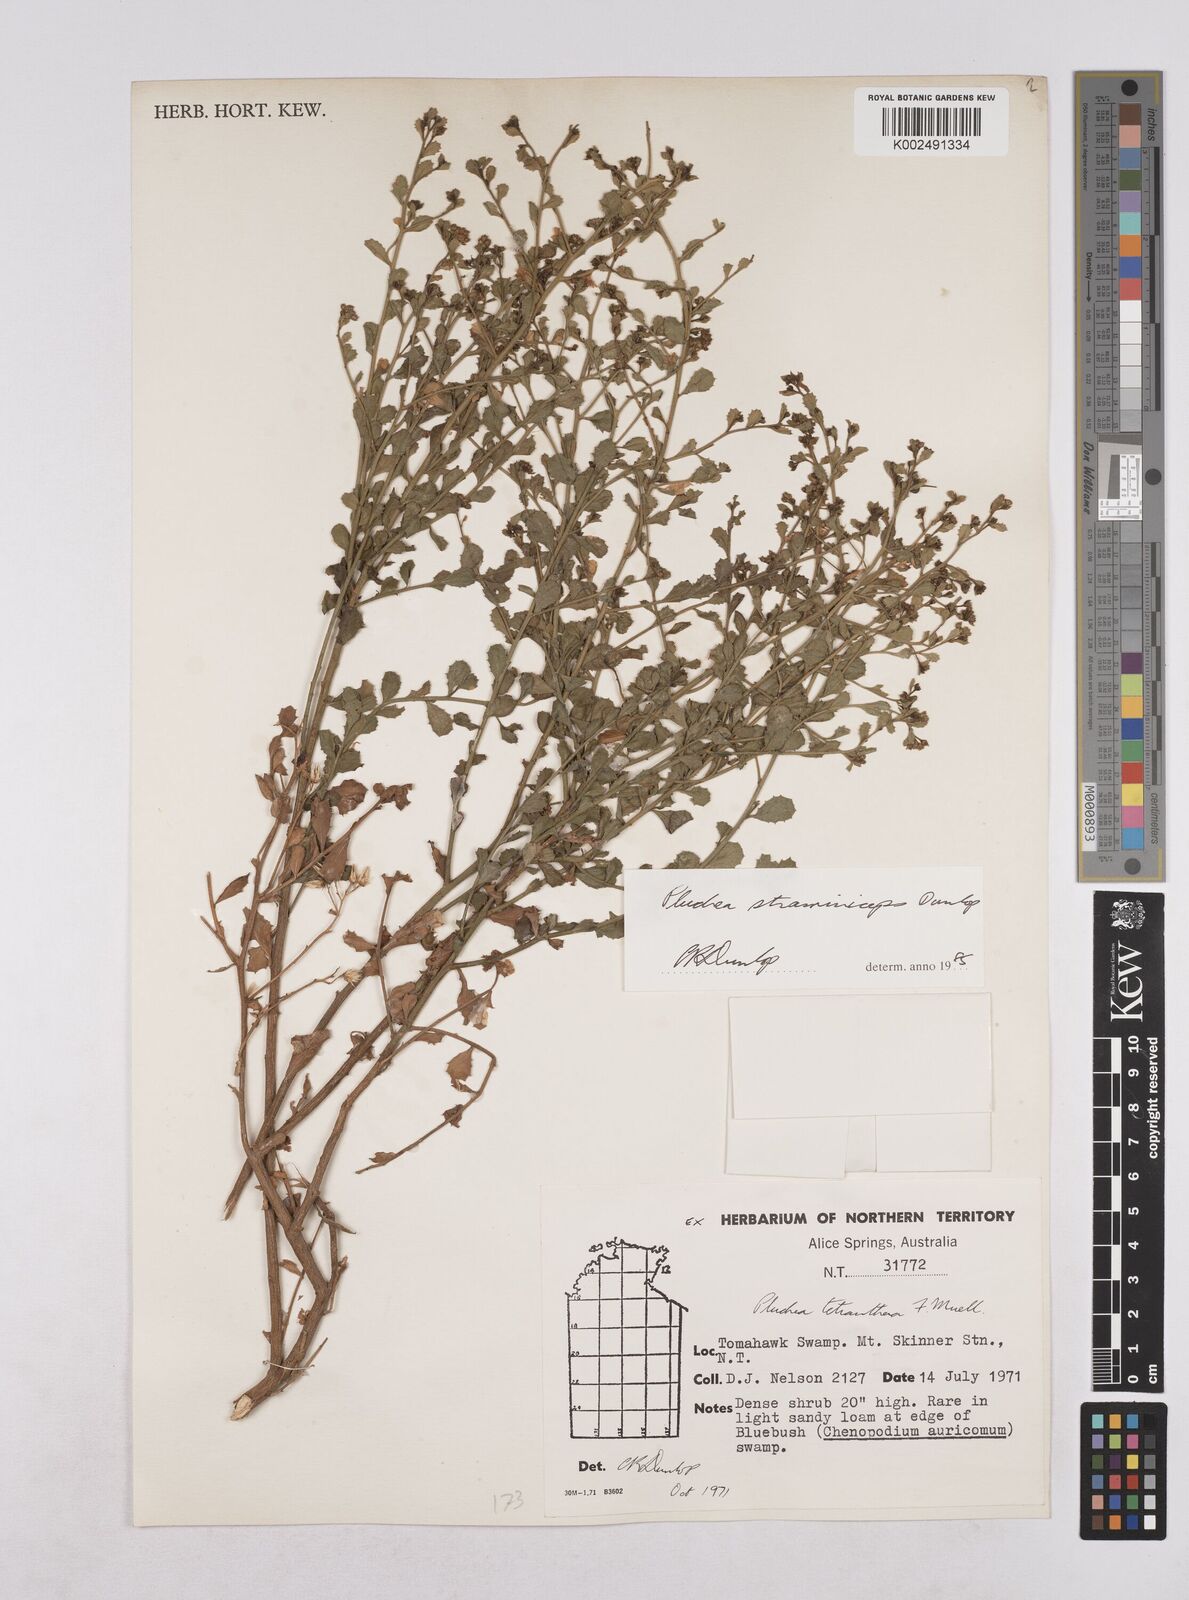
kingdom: Plantae
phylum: Tracheophyta
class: Magnoliopsida
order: Asterales
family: Asteraceae
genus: Pluchea
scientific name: Pluchea dunlopii
